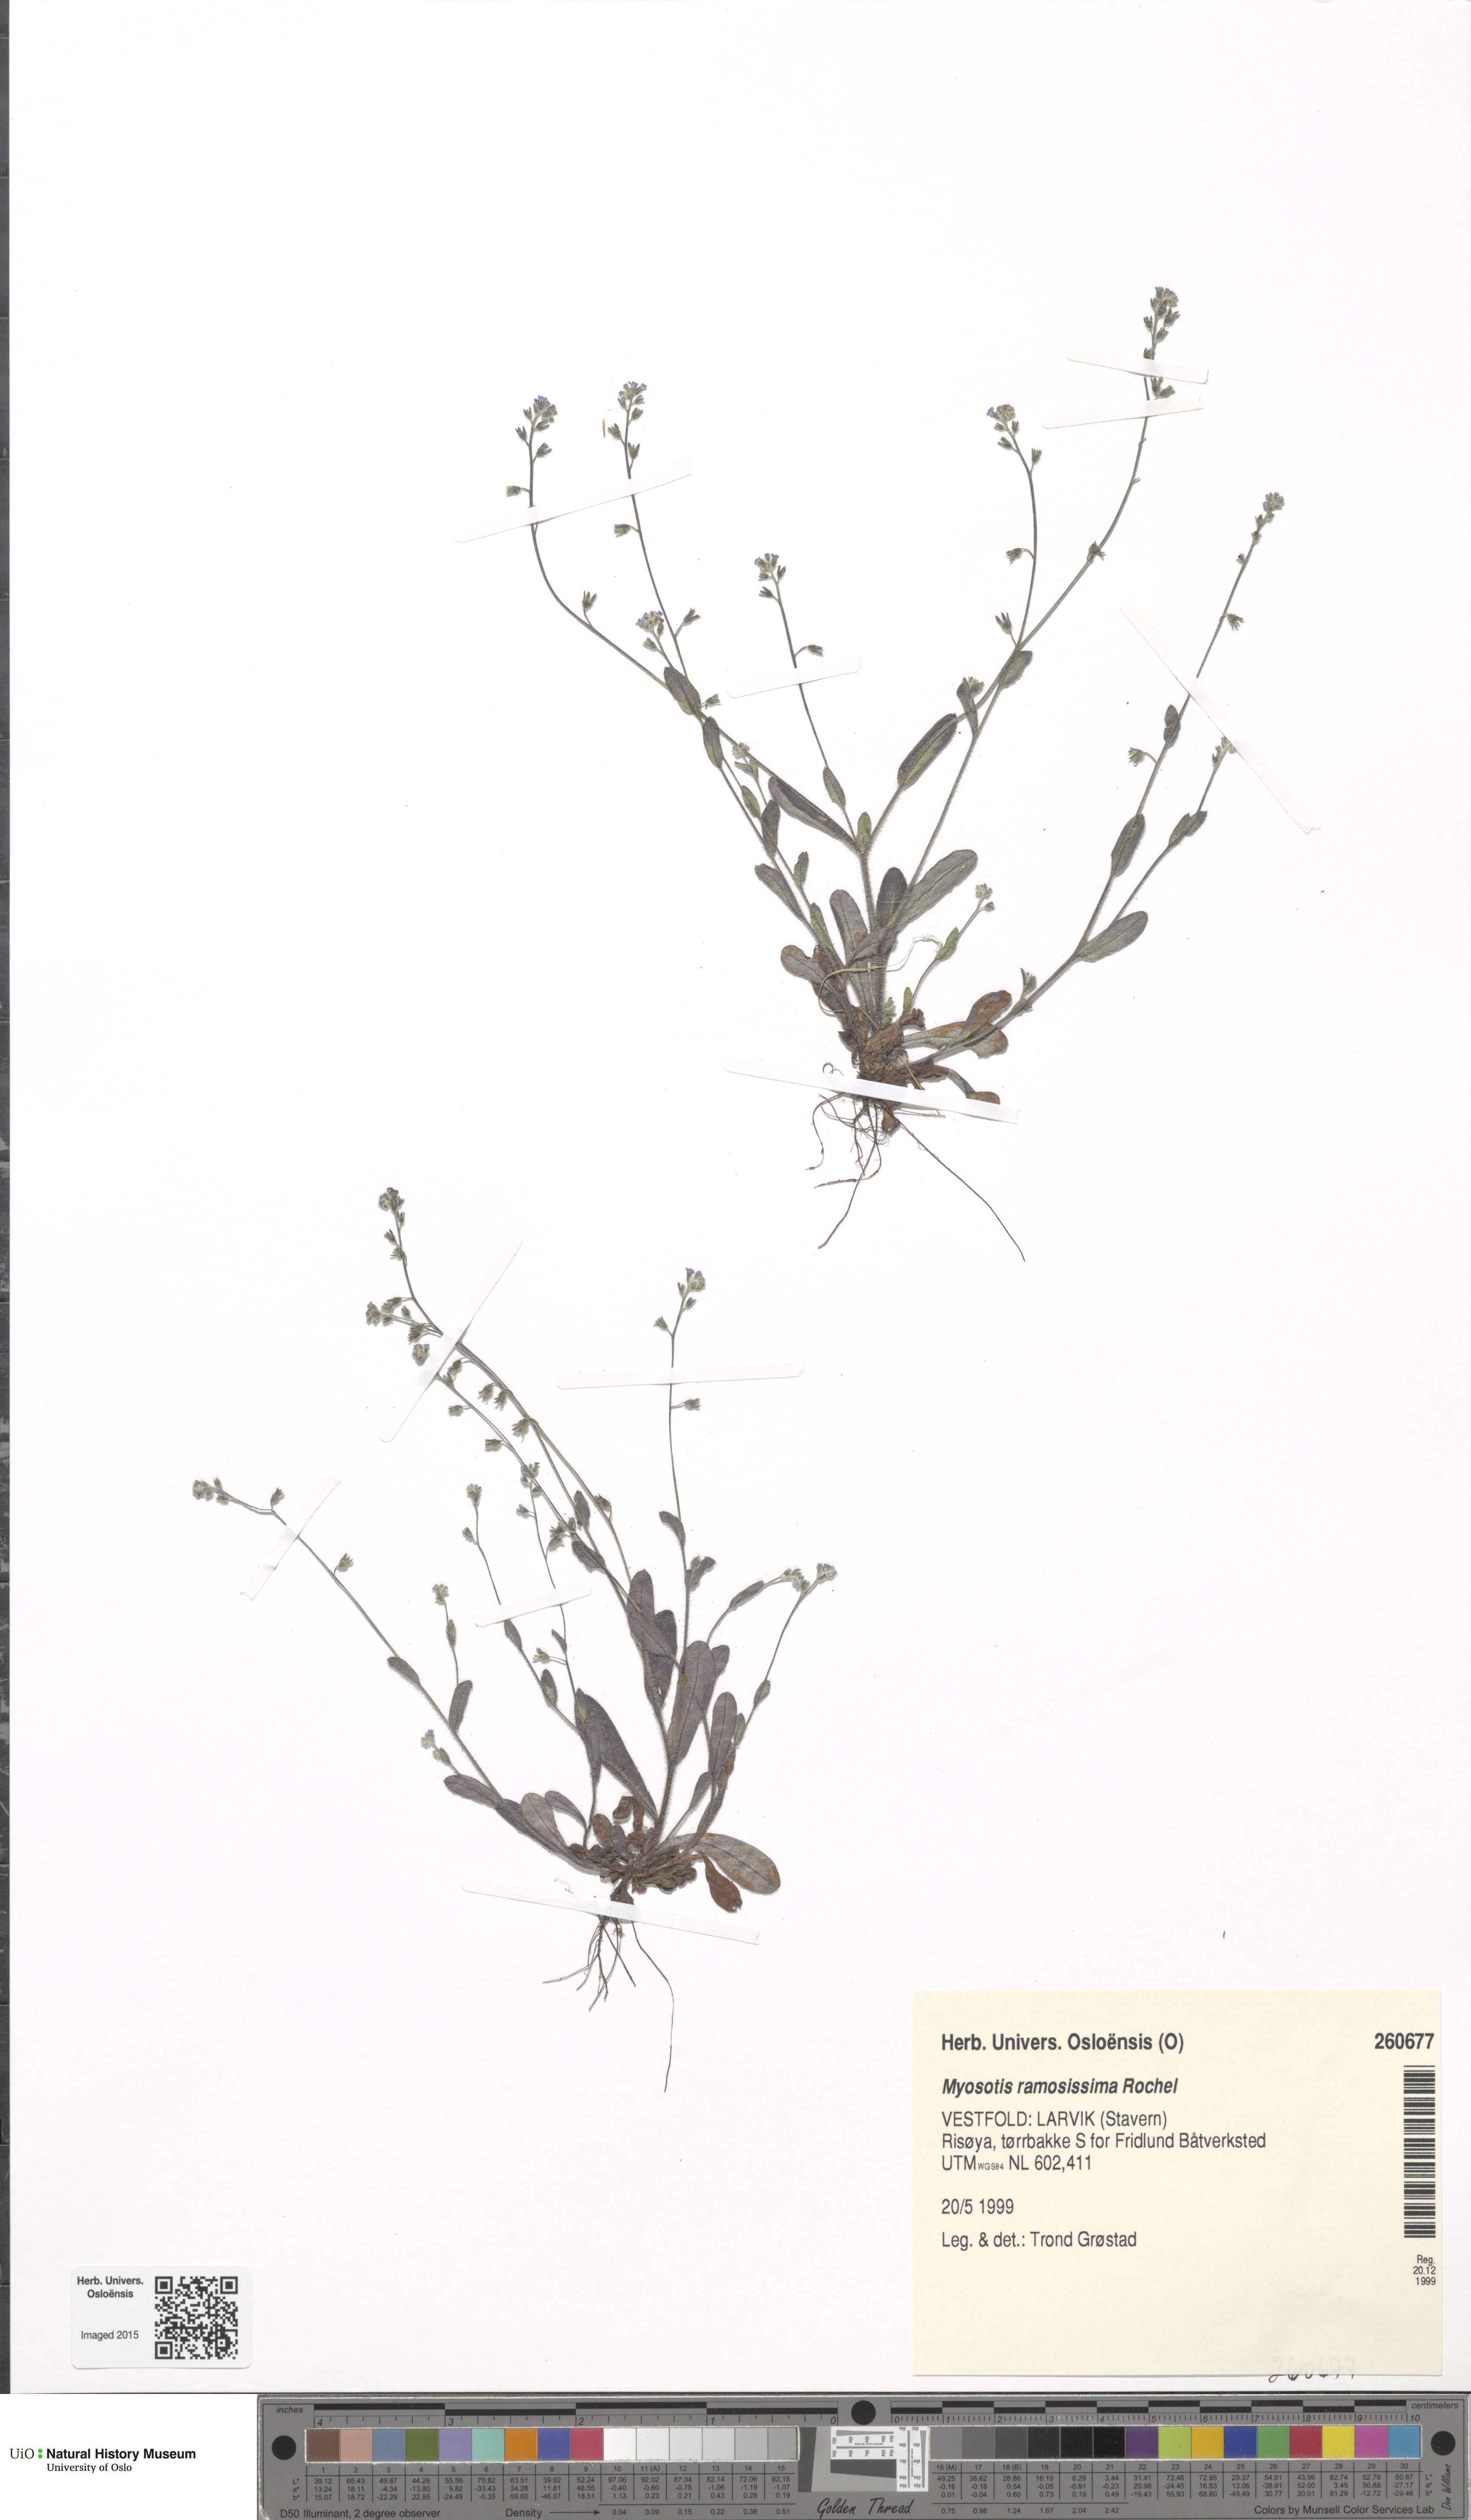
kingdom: Plantae
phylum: Tracheophyta
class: Magnoliopsida
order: Boraginales
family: Boraginaceae
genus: Myosotis
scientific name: Myosotis ramosissima
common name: Early forget-me-not
